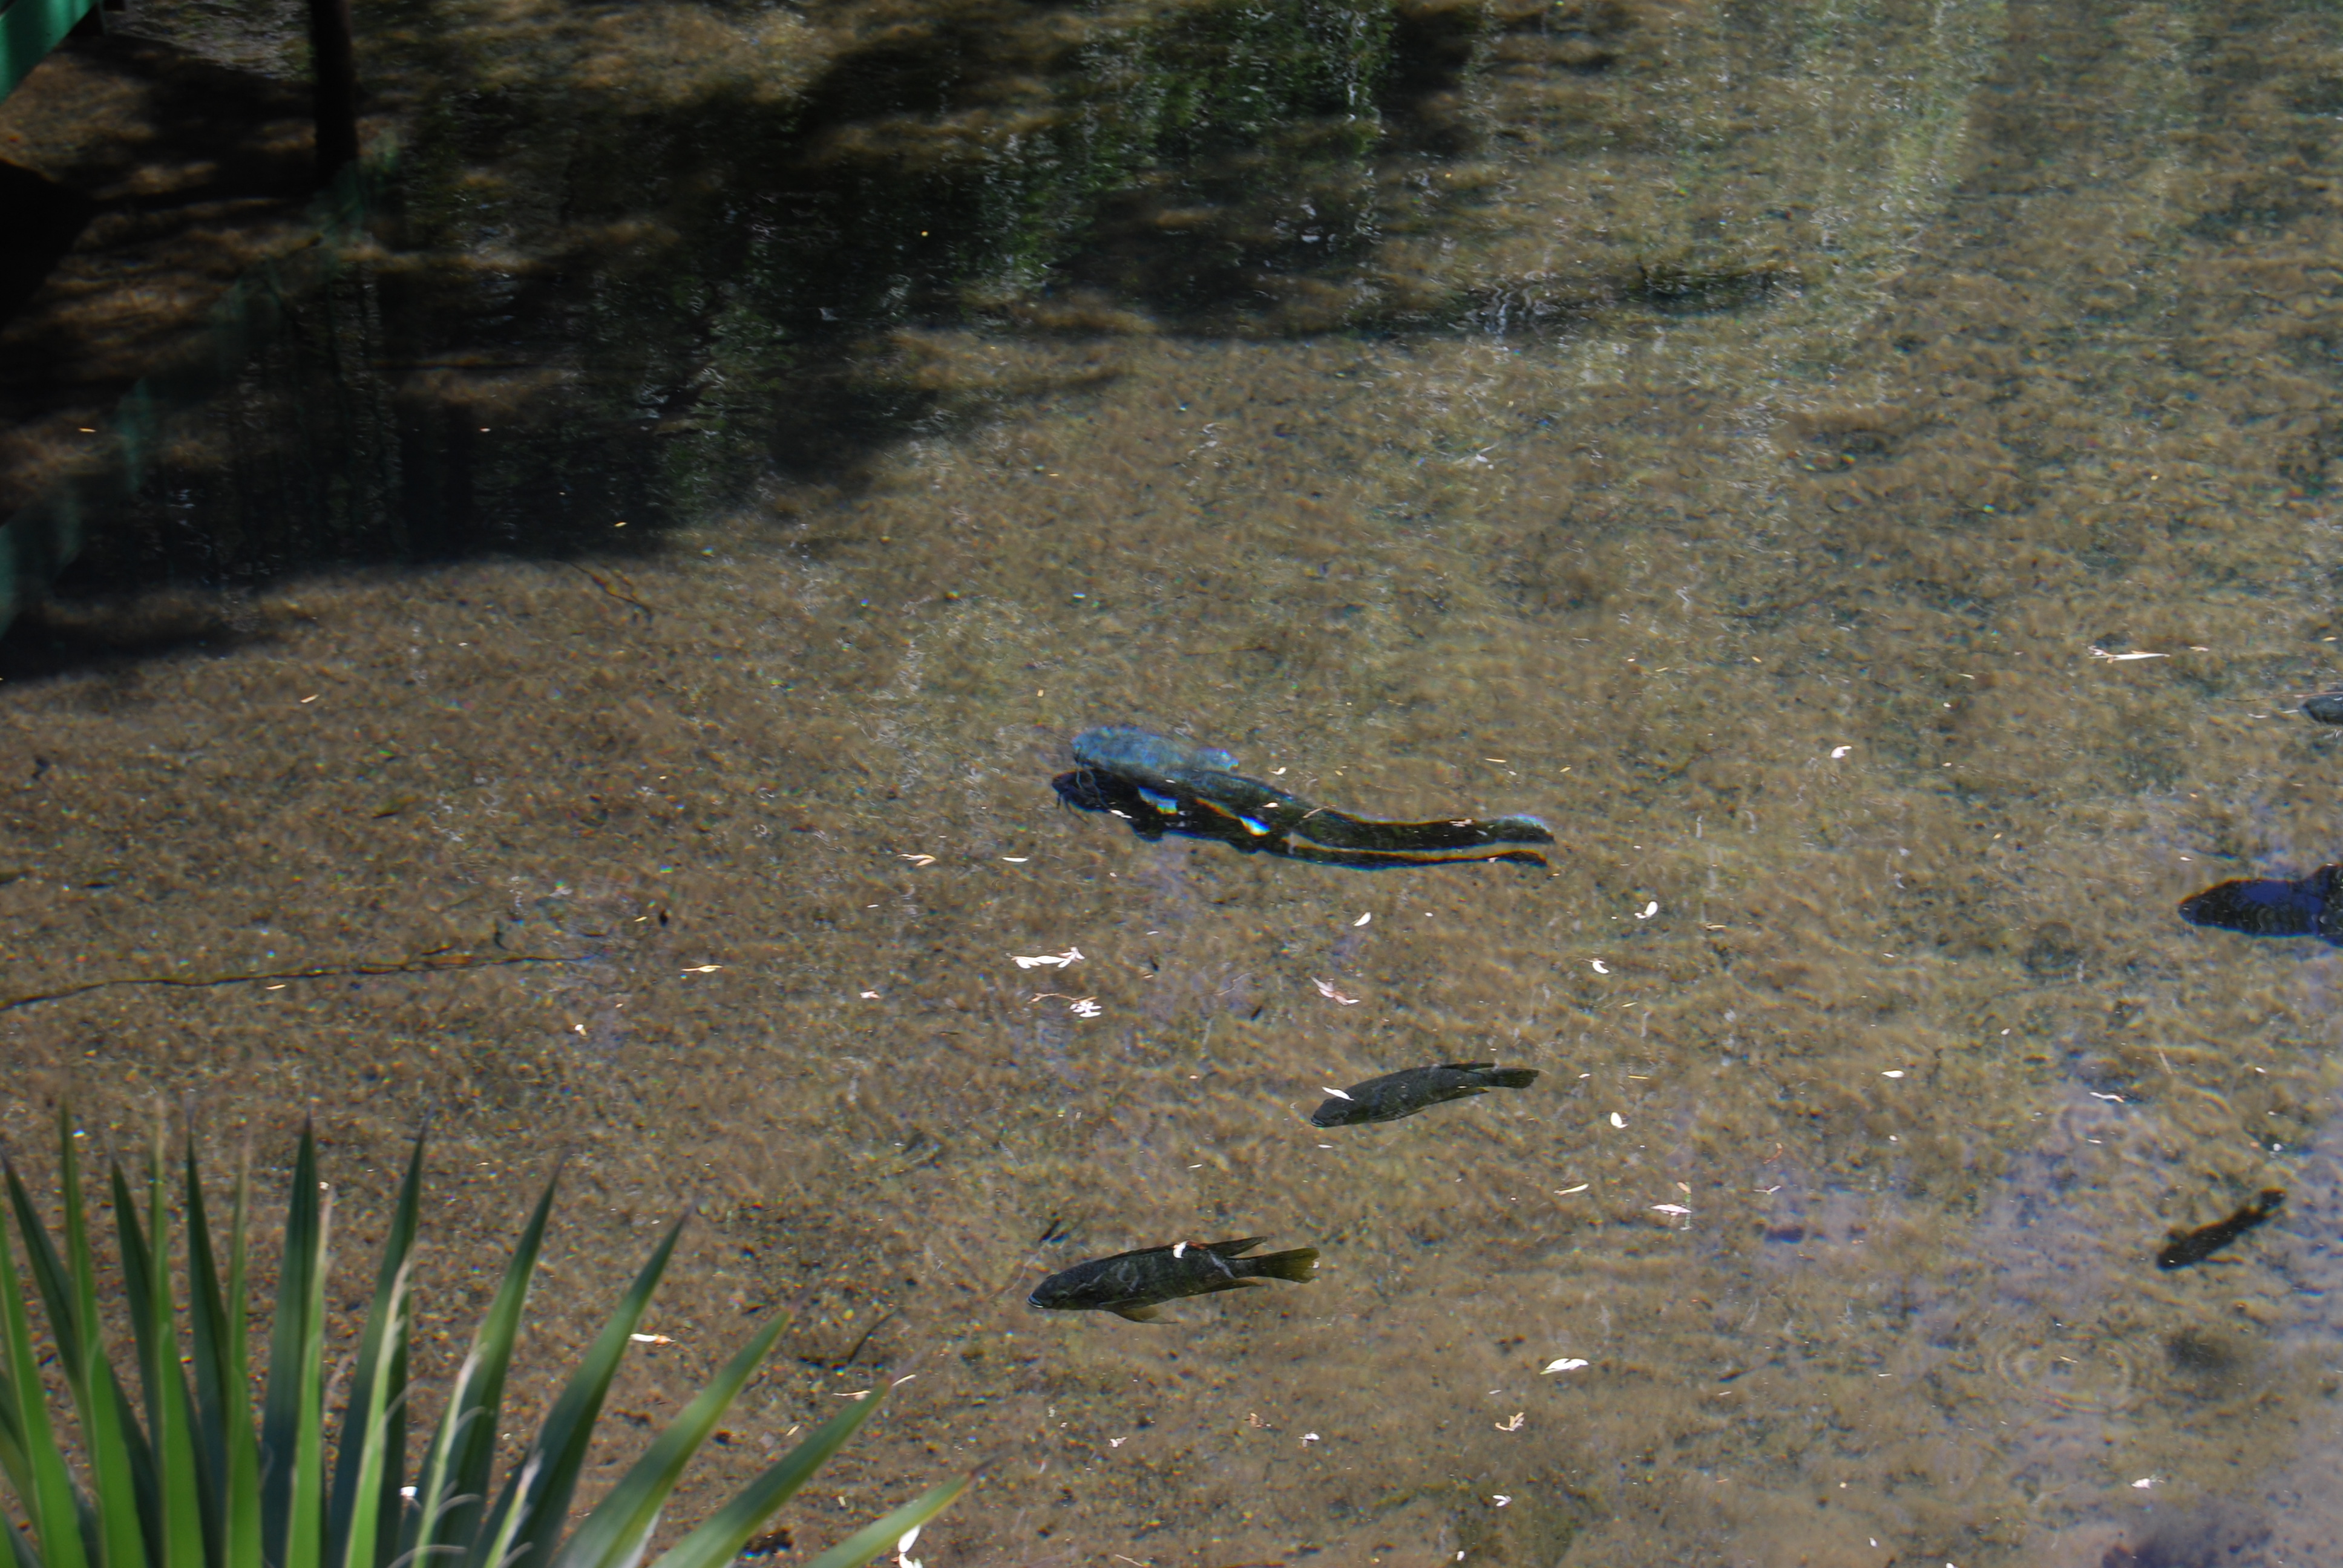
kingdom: Animalia
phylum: Chordata
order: Siluriformes
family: Clariidae
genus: Clarias
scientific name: Clarias gariepinus
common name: African catfish
